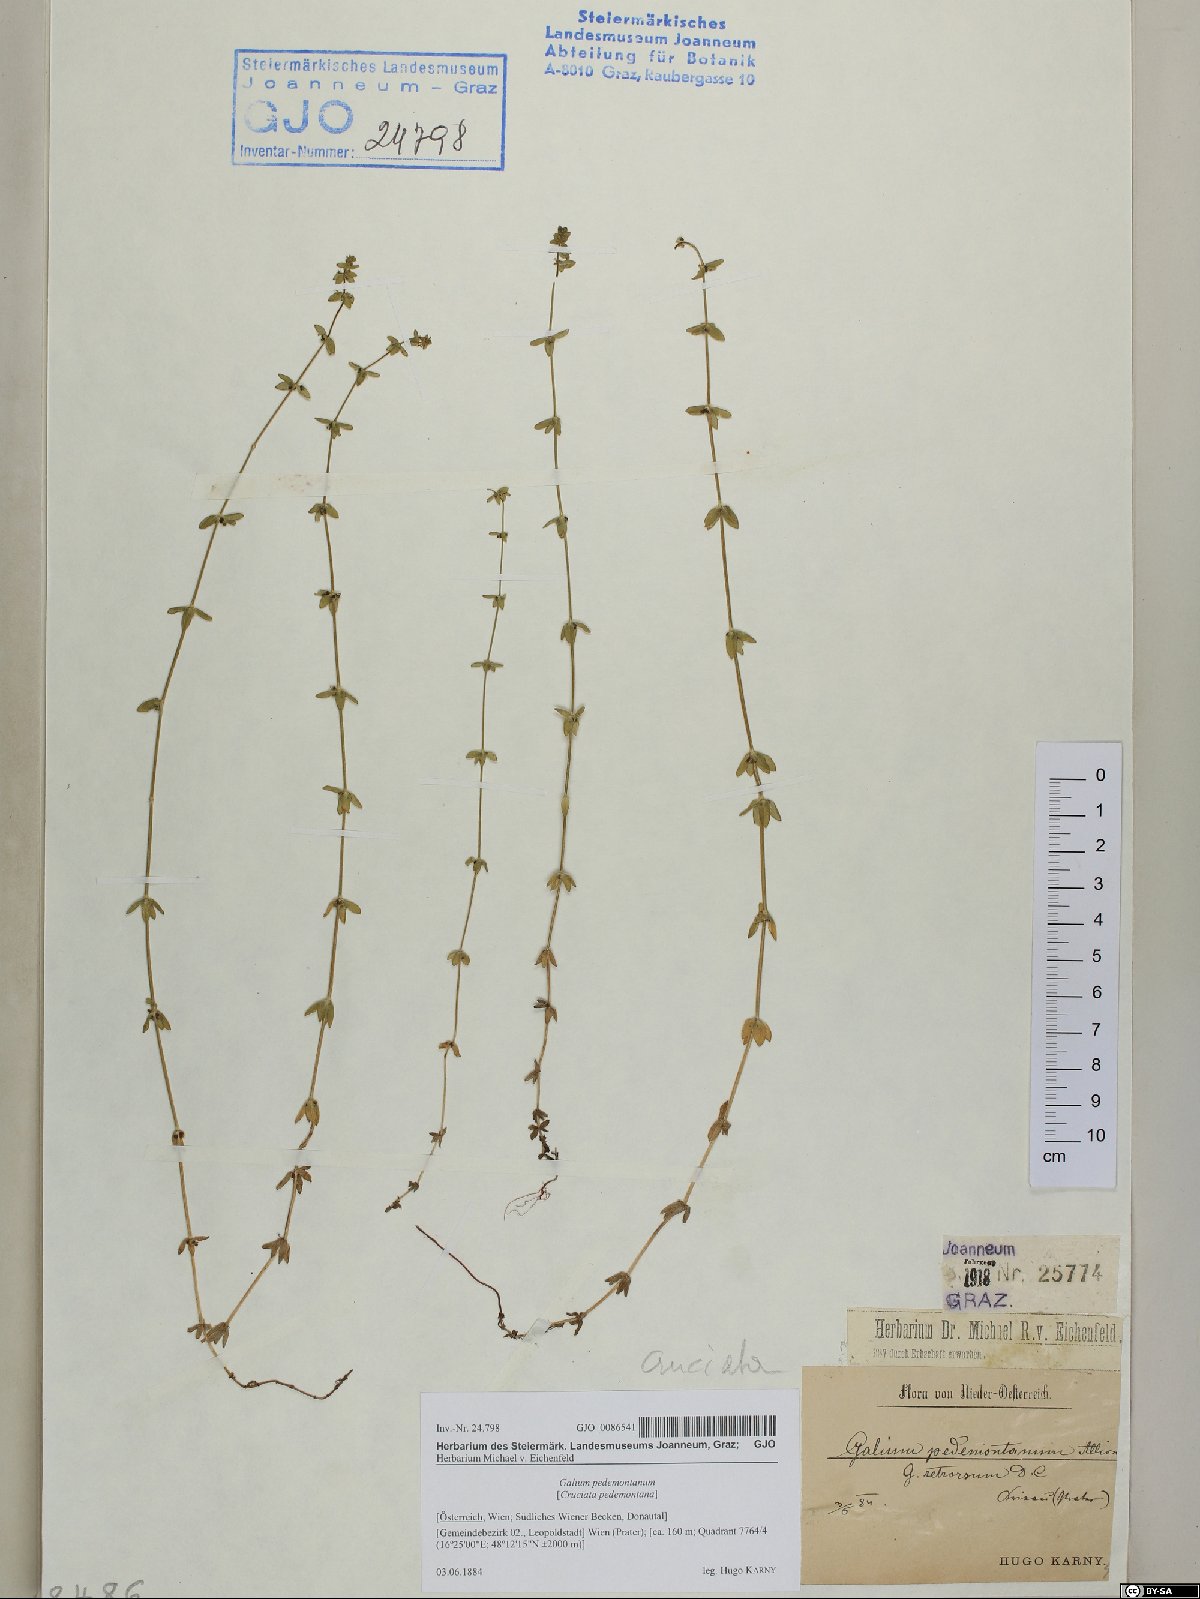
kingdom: Plantae
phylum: Tracheophyta
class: Magnoliopsida
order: Gentianales
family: Rubiaceae
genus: Cruciata
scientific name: Cruciata pedemontana
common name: Piedmont bedstraw
